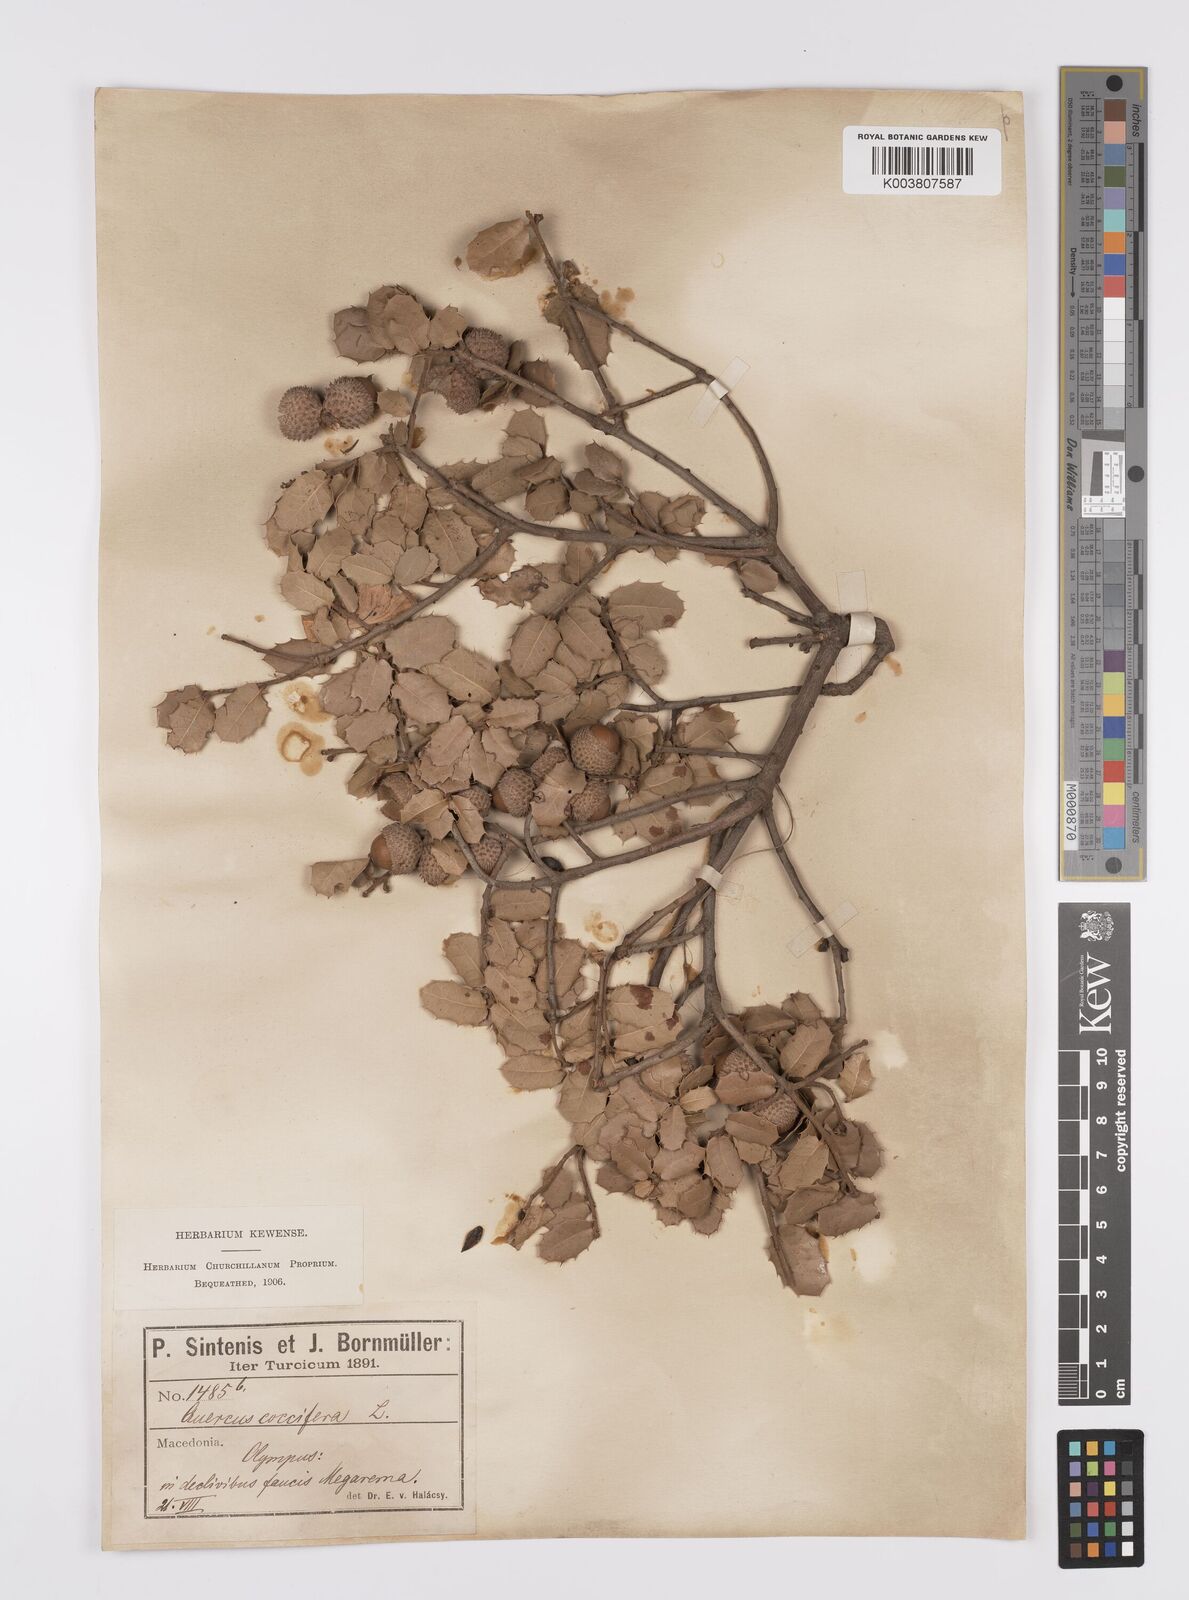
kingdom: Plantae
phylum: Tracheophyta
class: Magnoliopsida
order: Fagales
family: Fagaceae
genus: Quercus
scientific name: Quercus coccifera
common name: Kermes oak
